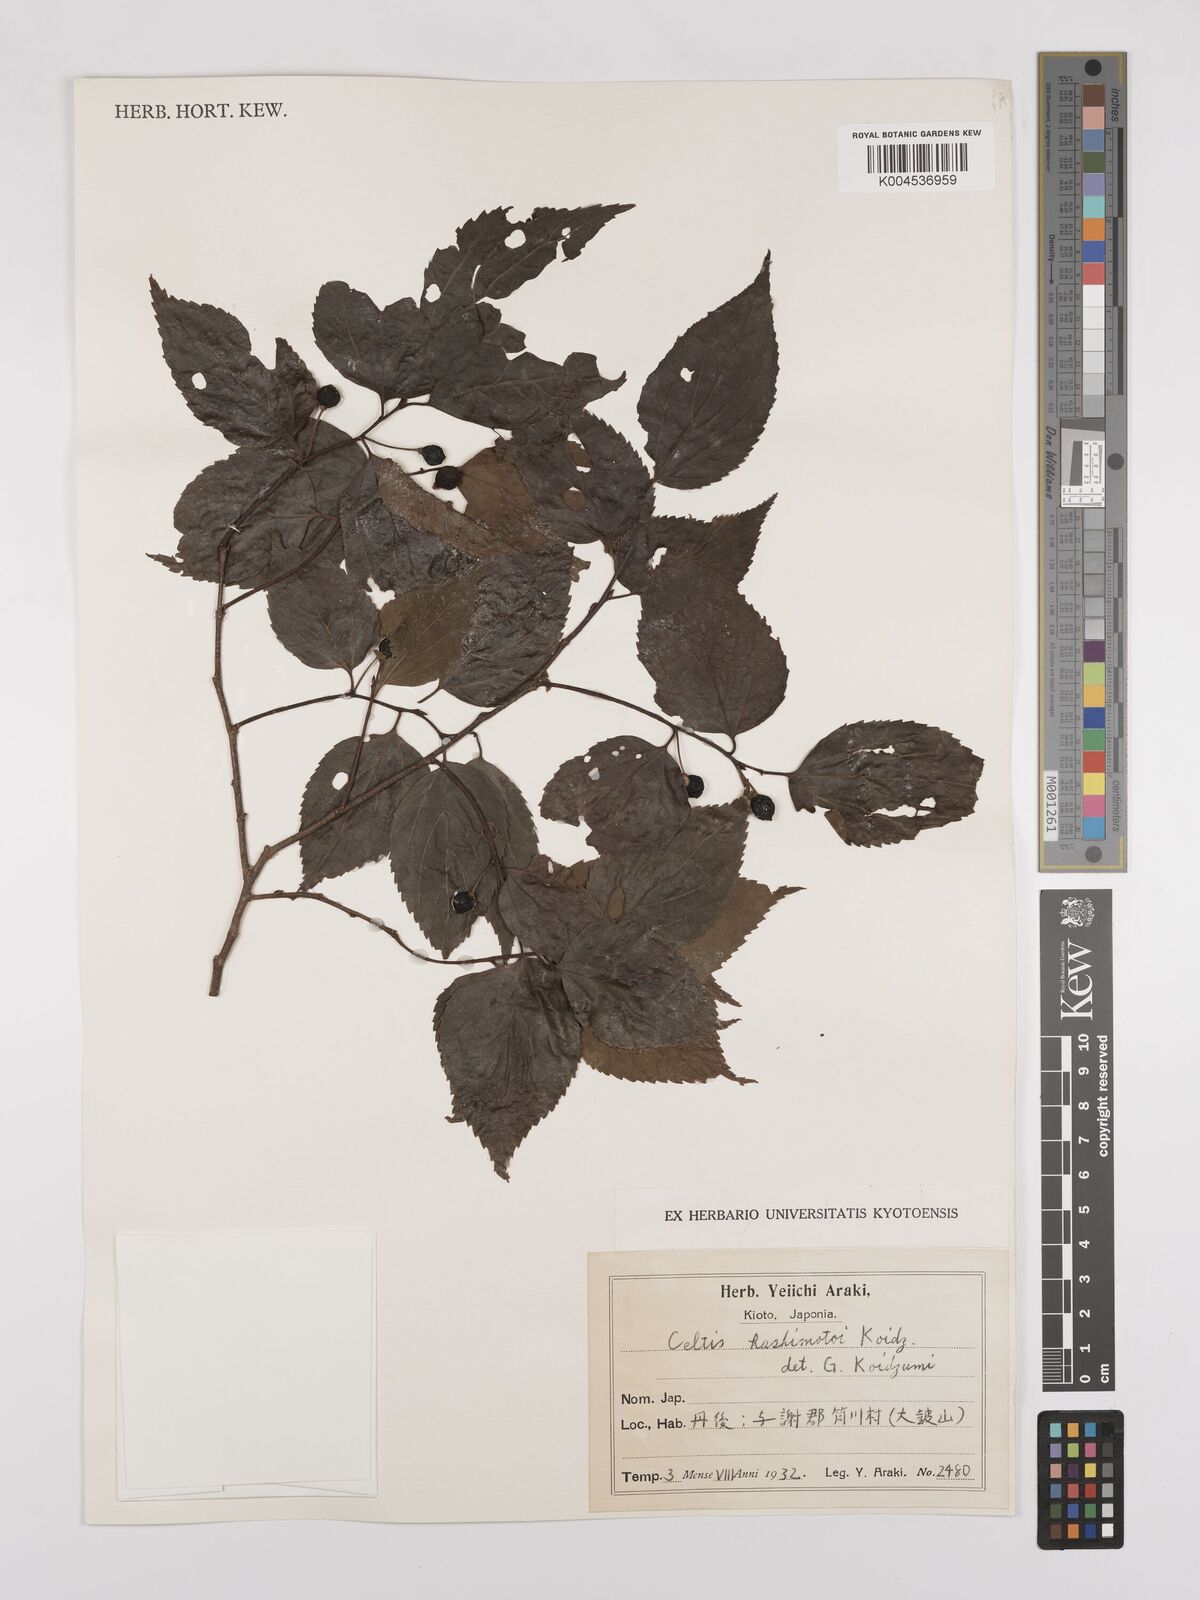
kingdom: Plantae
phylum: Tracheophyta
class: Magnoliopsida
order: Rosales
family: Cannabaceae
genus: Celtis
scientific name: Celtis jessoensis
